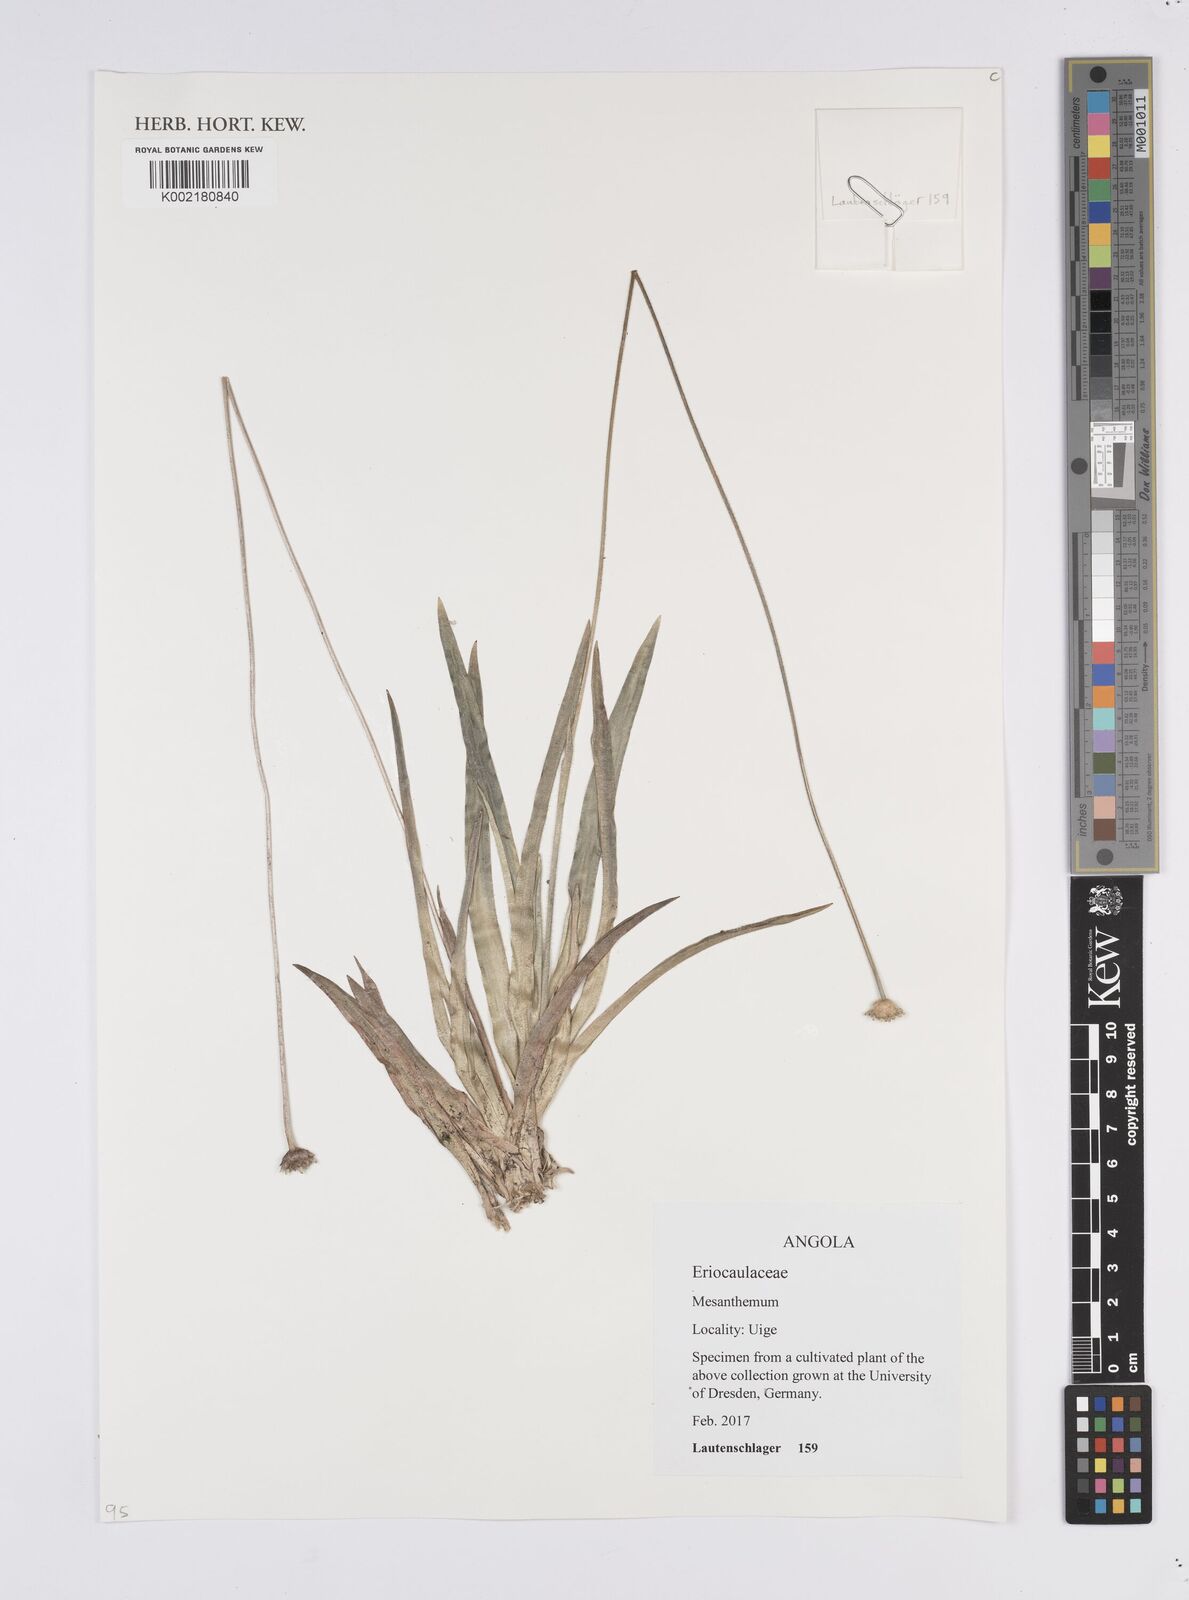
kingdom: Plantae
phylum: Tracheophyta
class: Liliopsida
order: Poales
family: Eriocaulaceae
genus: Mesanthemum
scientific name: Mesanthemum
